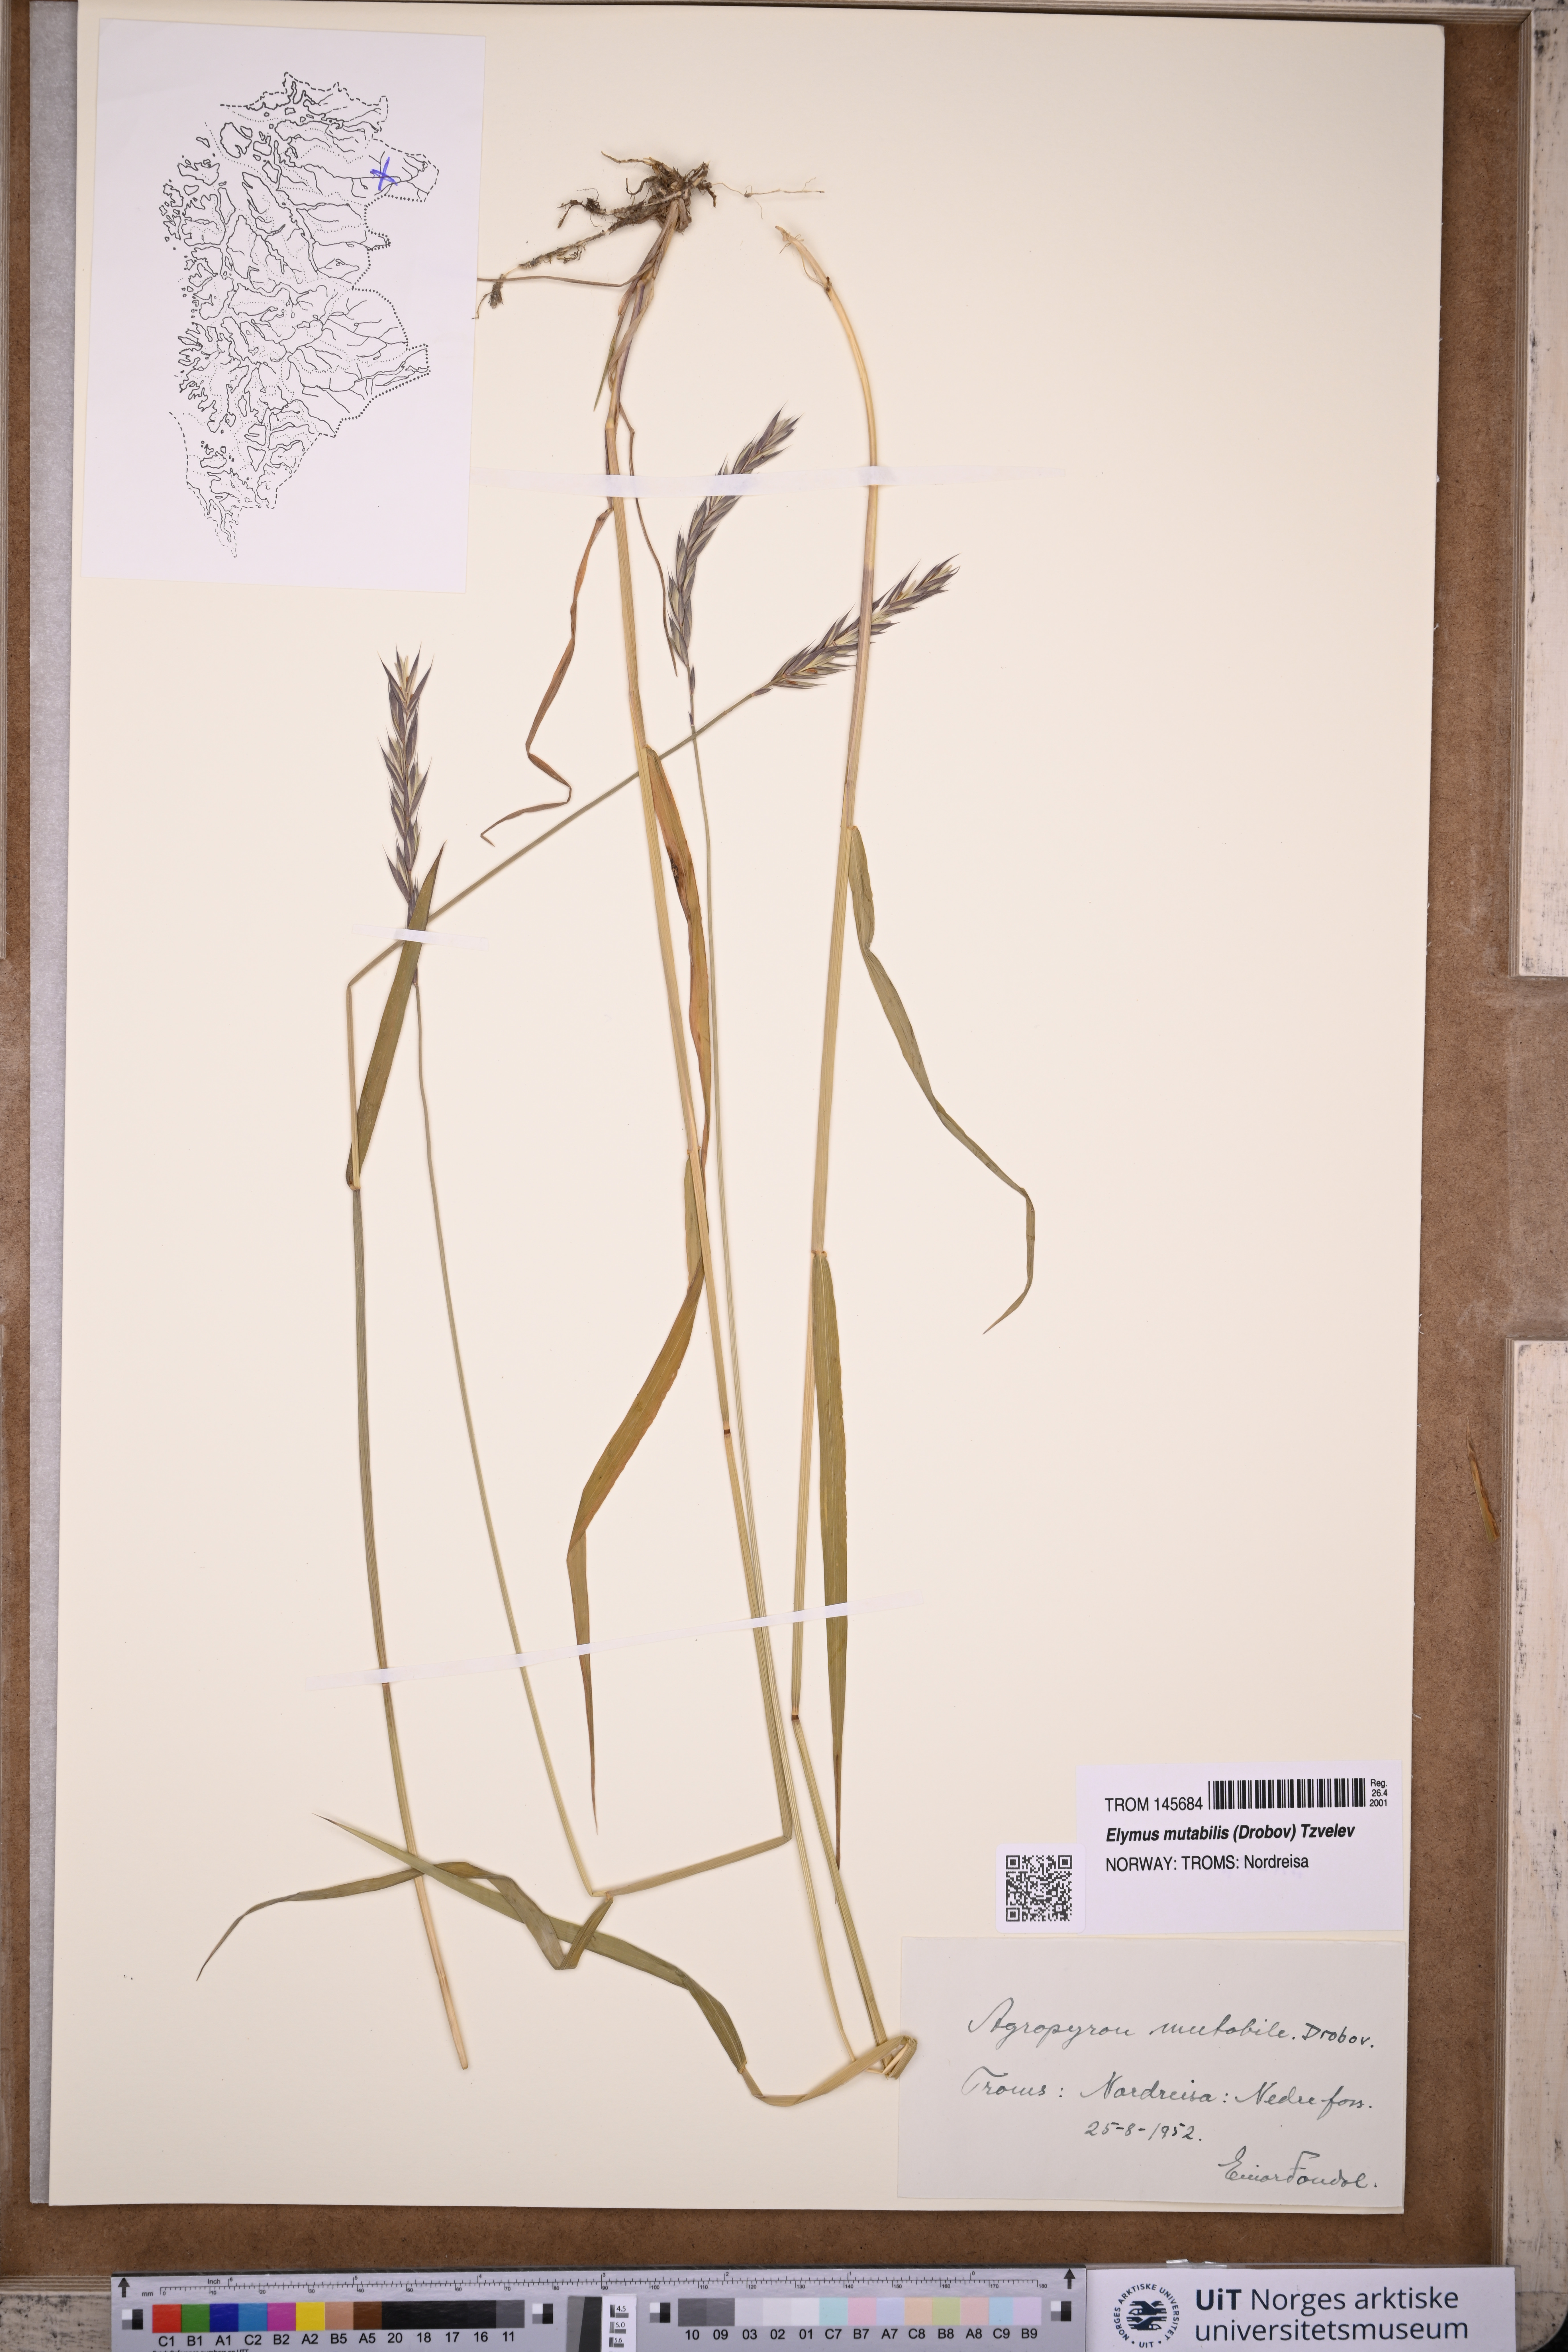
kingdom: Plantae
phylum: Tracheophyta
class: Liliopsida
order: Poales
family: Poaceae
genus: Elymus
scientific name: Elymus mutabilis
